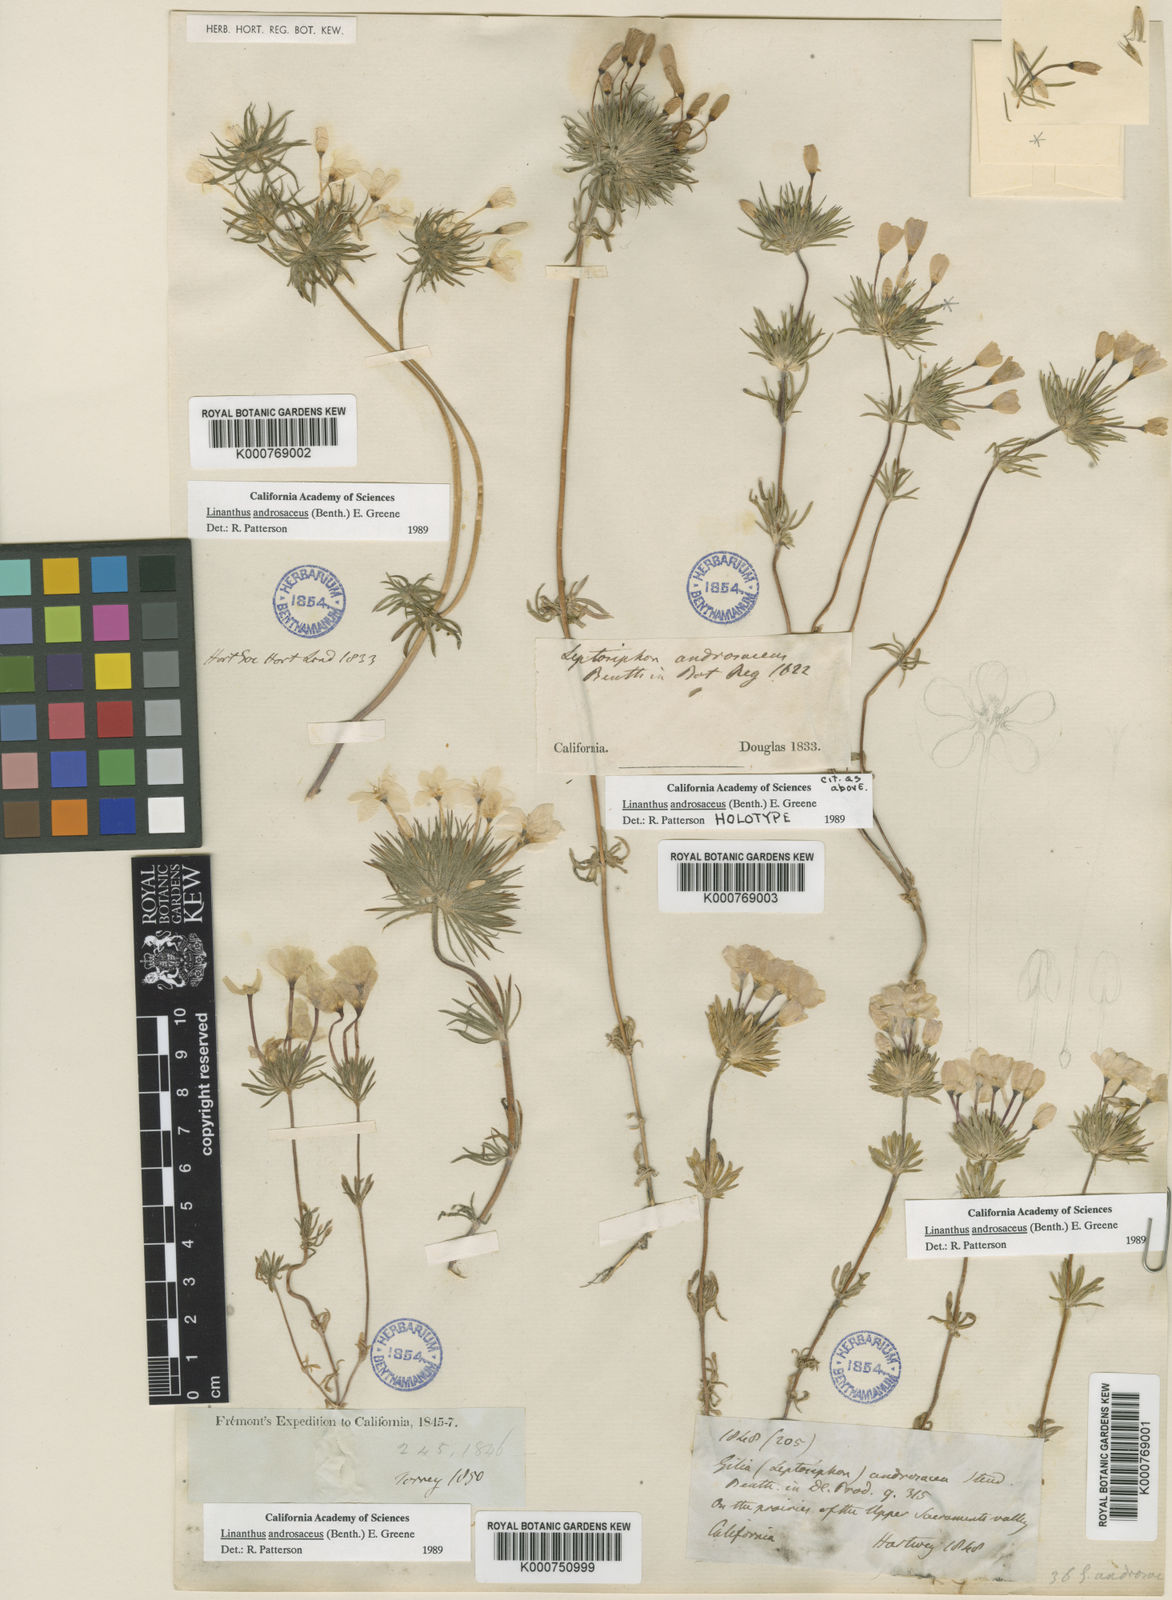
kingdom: Plantae
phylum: Tracheophyta
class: Magnoliopsida
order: Ericales
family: Polemoniaceae
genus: Leptosiphon
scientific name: Leptosiphon androsaceus
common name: False babystars
